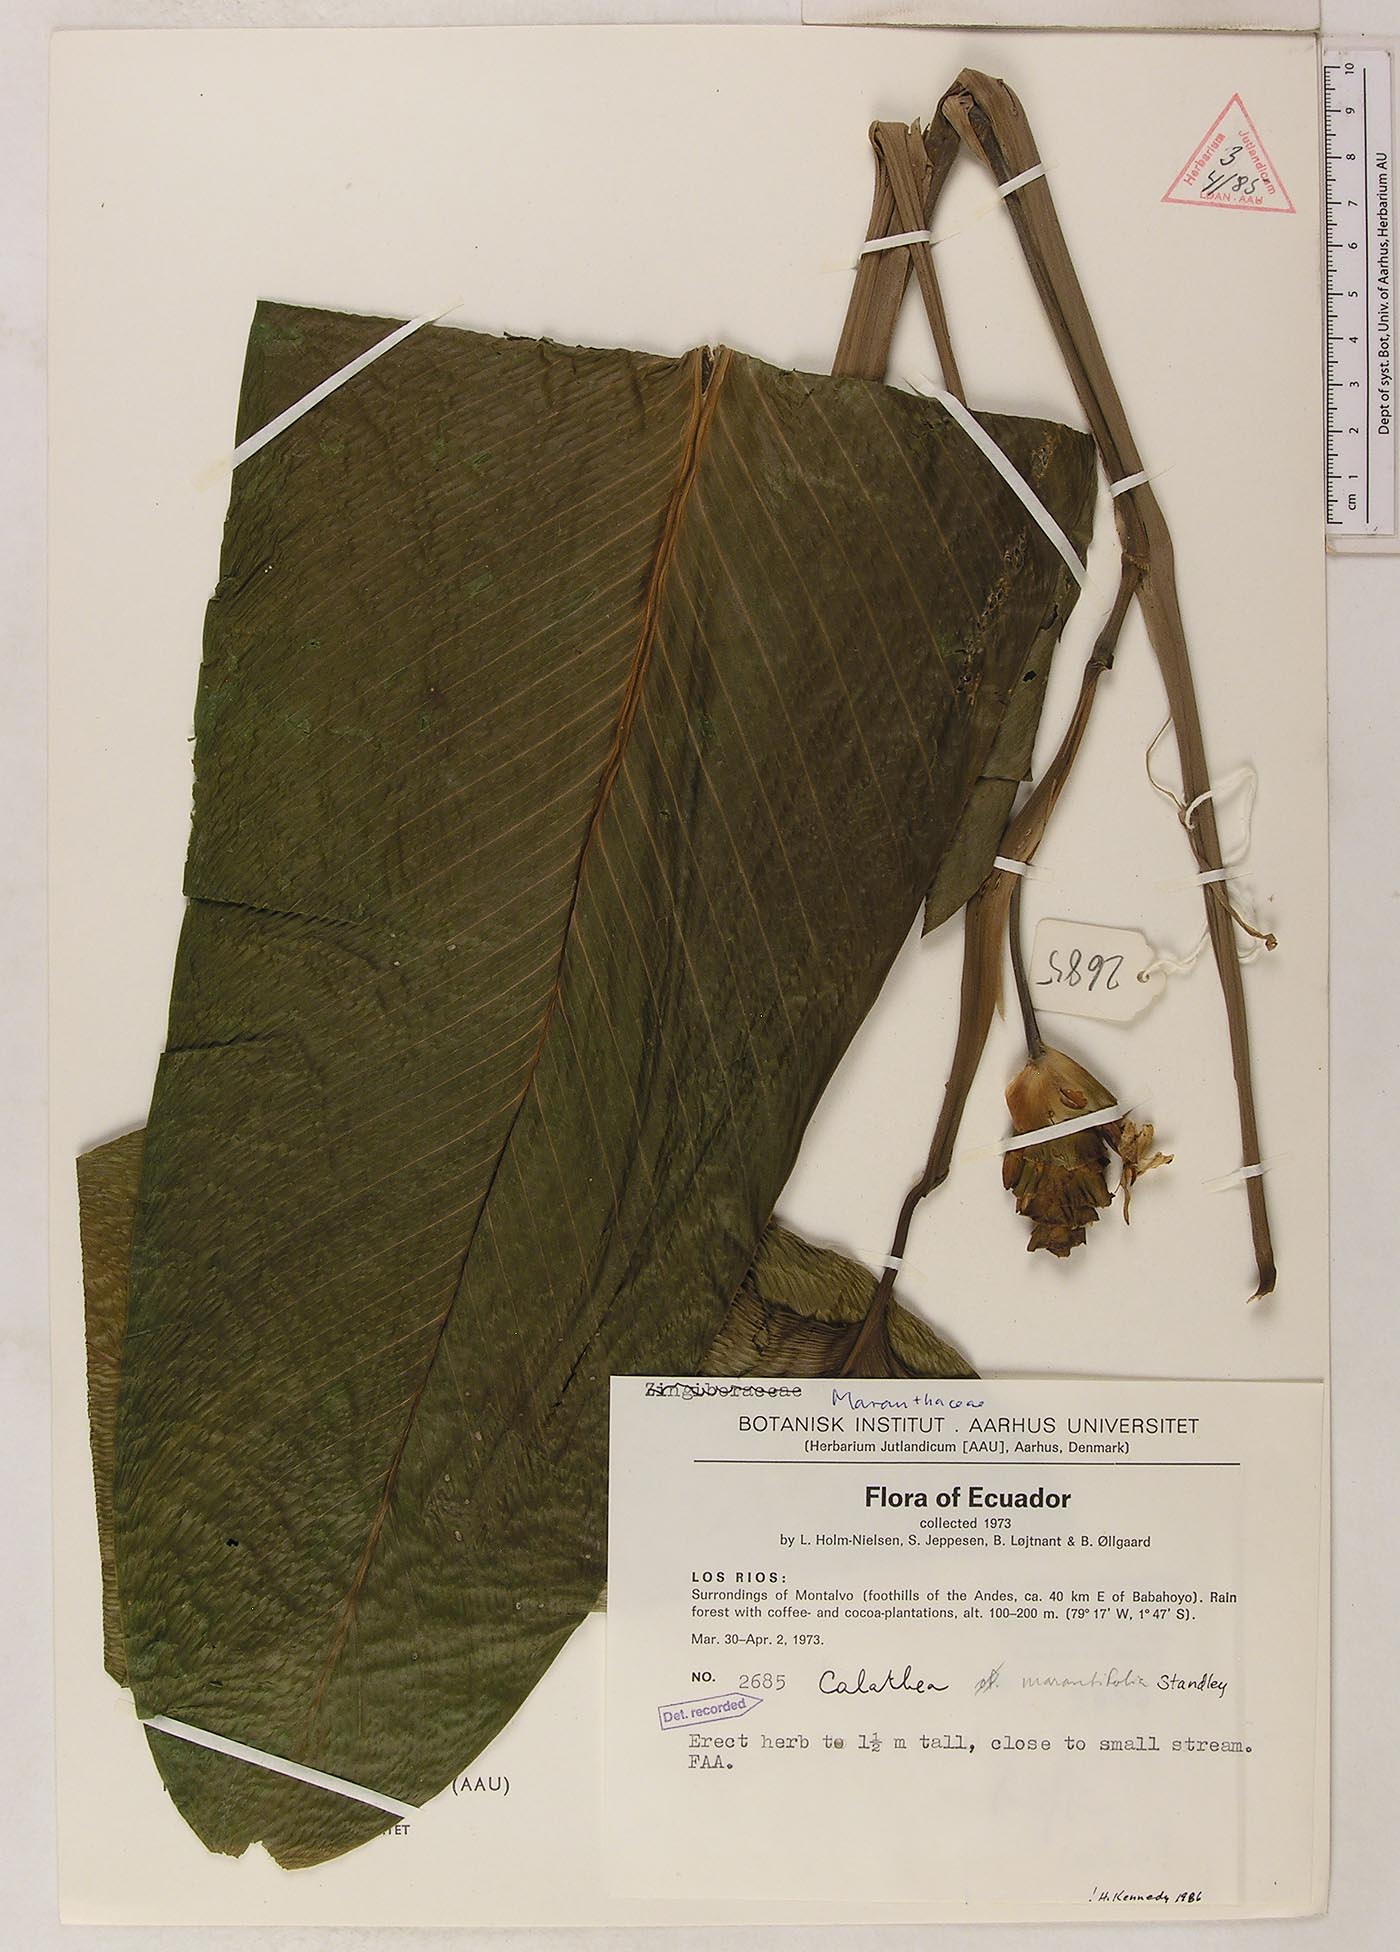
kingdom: Plantae
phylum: Tracheophyta
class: Liliopsida
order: Zingiberales
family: Marantaceae
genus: Goeppertia
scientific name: Goeppertia marantifolia
